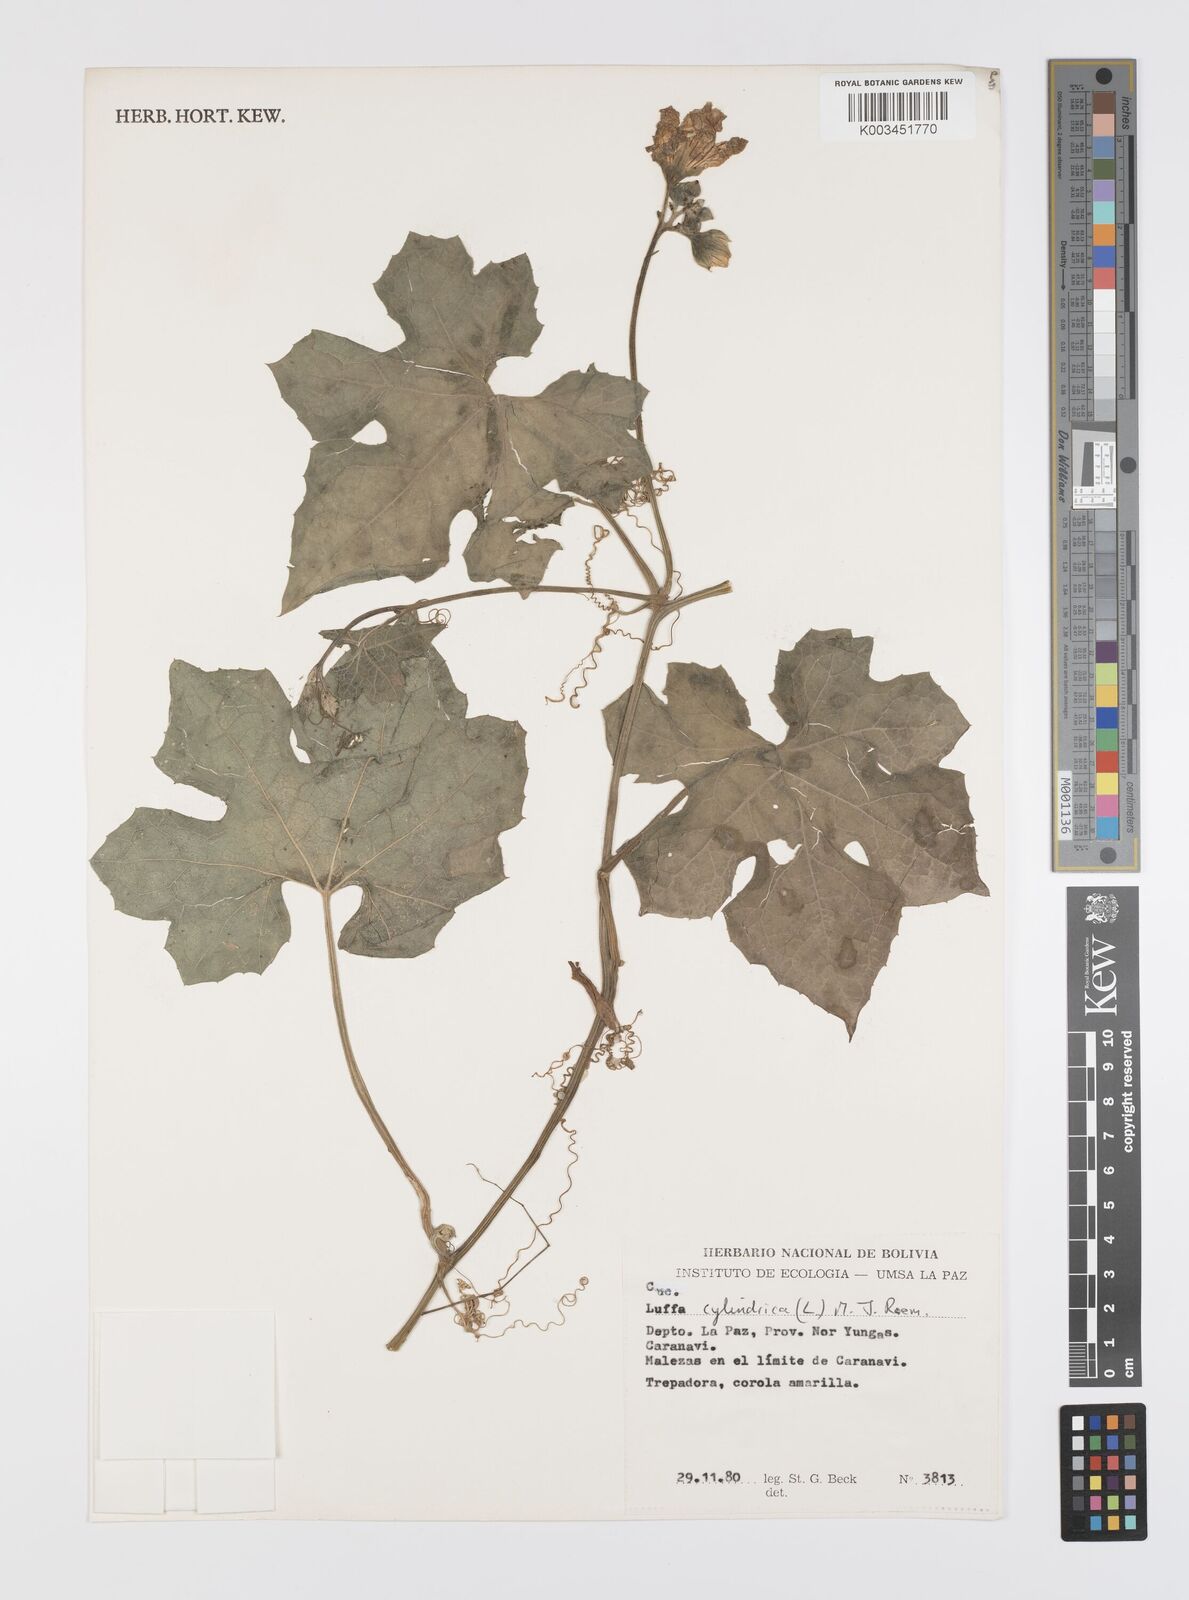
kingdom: Plantae
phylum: Tracheophyta
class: Magnoliopsida
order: Cucurbitales
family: Cucurbitaceae
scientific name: Cucurbitaceae
